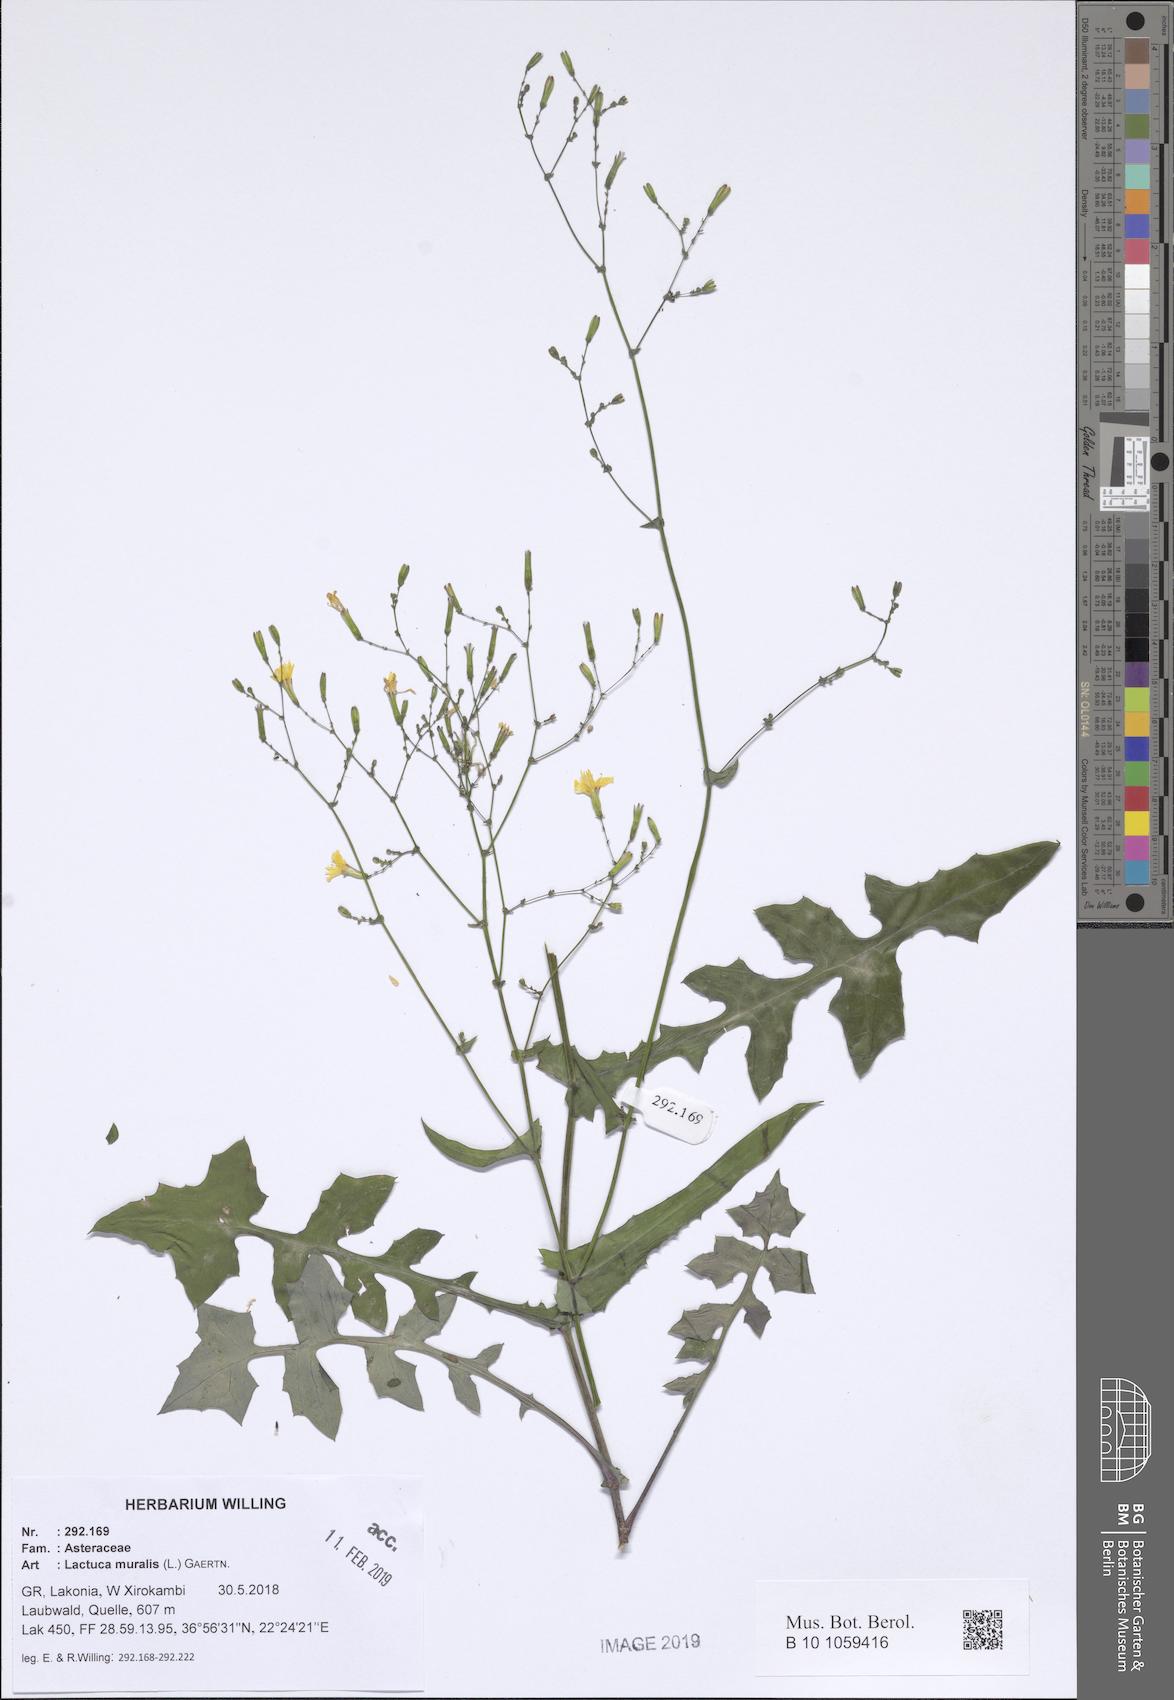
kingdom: Plantae
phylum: Tracheophyta
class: Magnoliopsida
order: Asterales
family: Asteraceae
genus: Mycelis
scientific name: Mycelis muralis
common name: Wall lettuce
